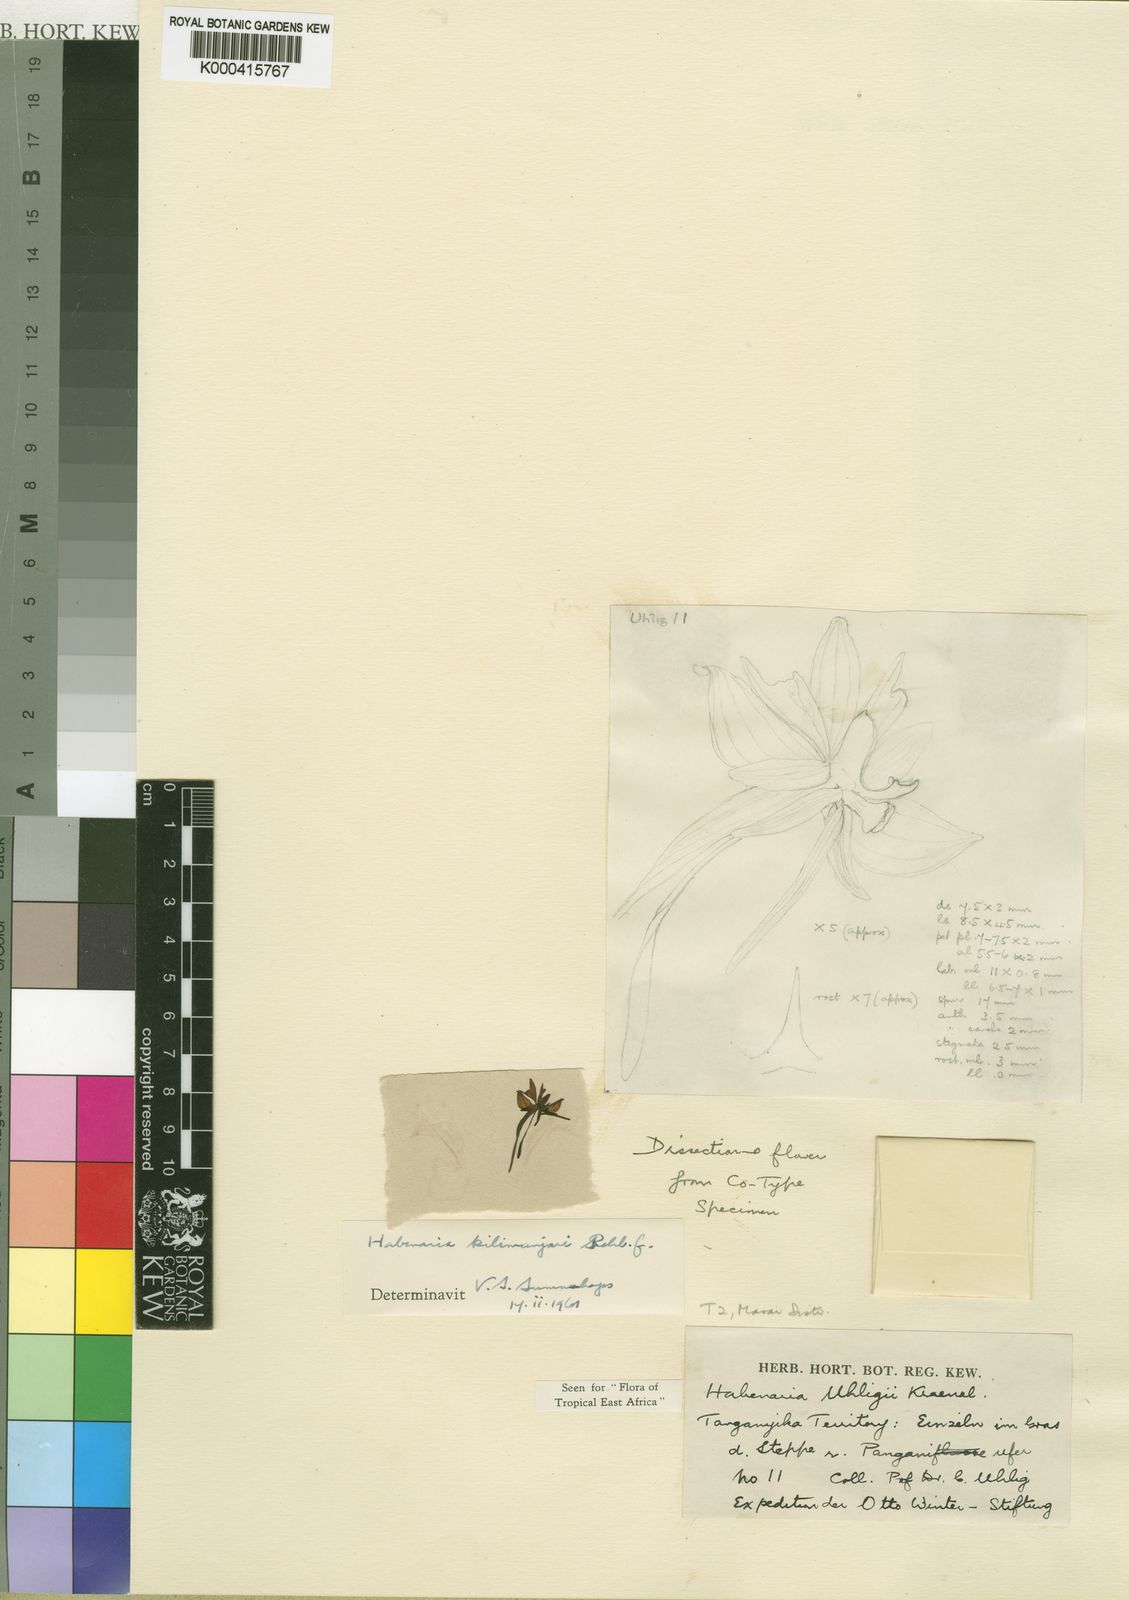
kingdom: Plantae
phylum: Tracheophyta
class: Liliopsida
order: Asparagales
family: Orchidaceae
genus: Habenaria
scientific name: Habenaria kilimanjari
